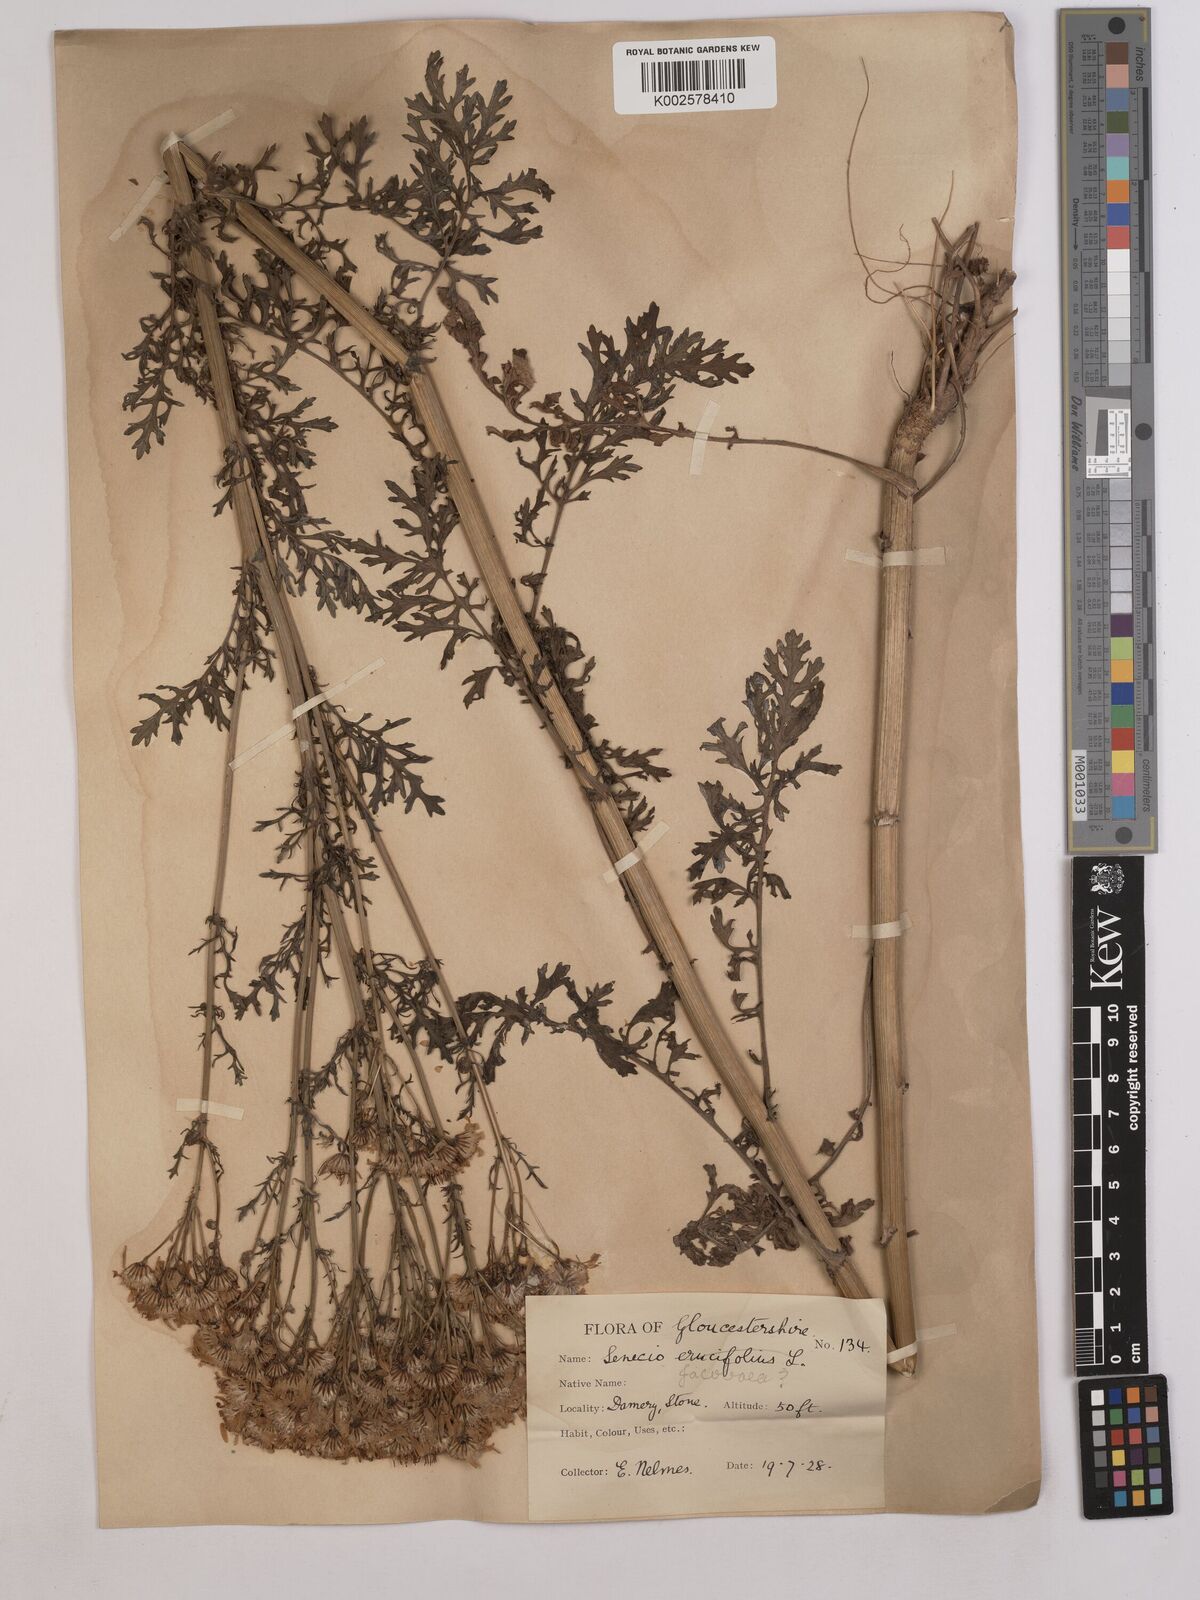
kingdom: Plantae
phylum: Tracheophyta
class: Magnoliopsida
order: Asterales
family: Asteraceae
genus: Jacobaea
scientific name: Jacobaea vulgaris
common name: Stinking willie
